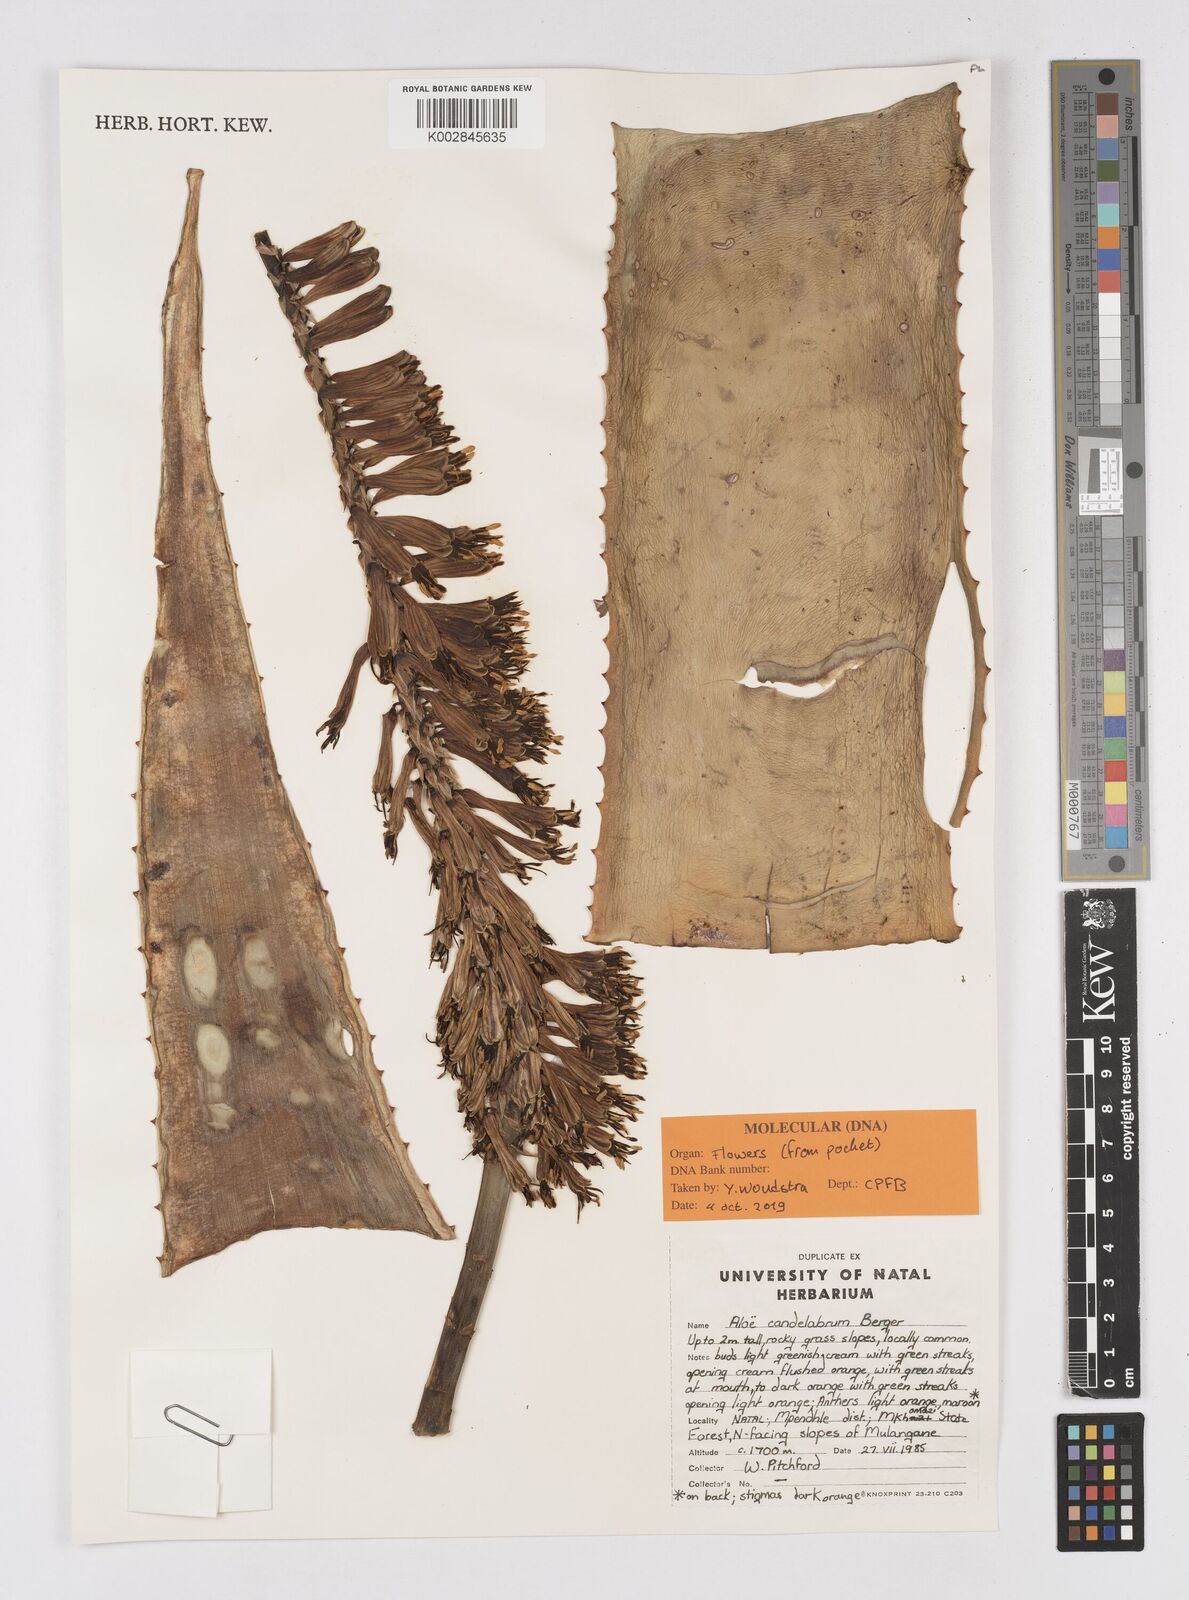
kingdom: Plantae
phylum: Tracheophyta
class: Liliopsida
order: Asparagales
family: Asphodelaceae
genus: Aloe
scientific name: Aloe candelabrum
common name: Candelabra aloe
